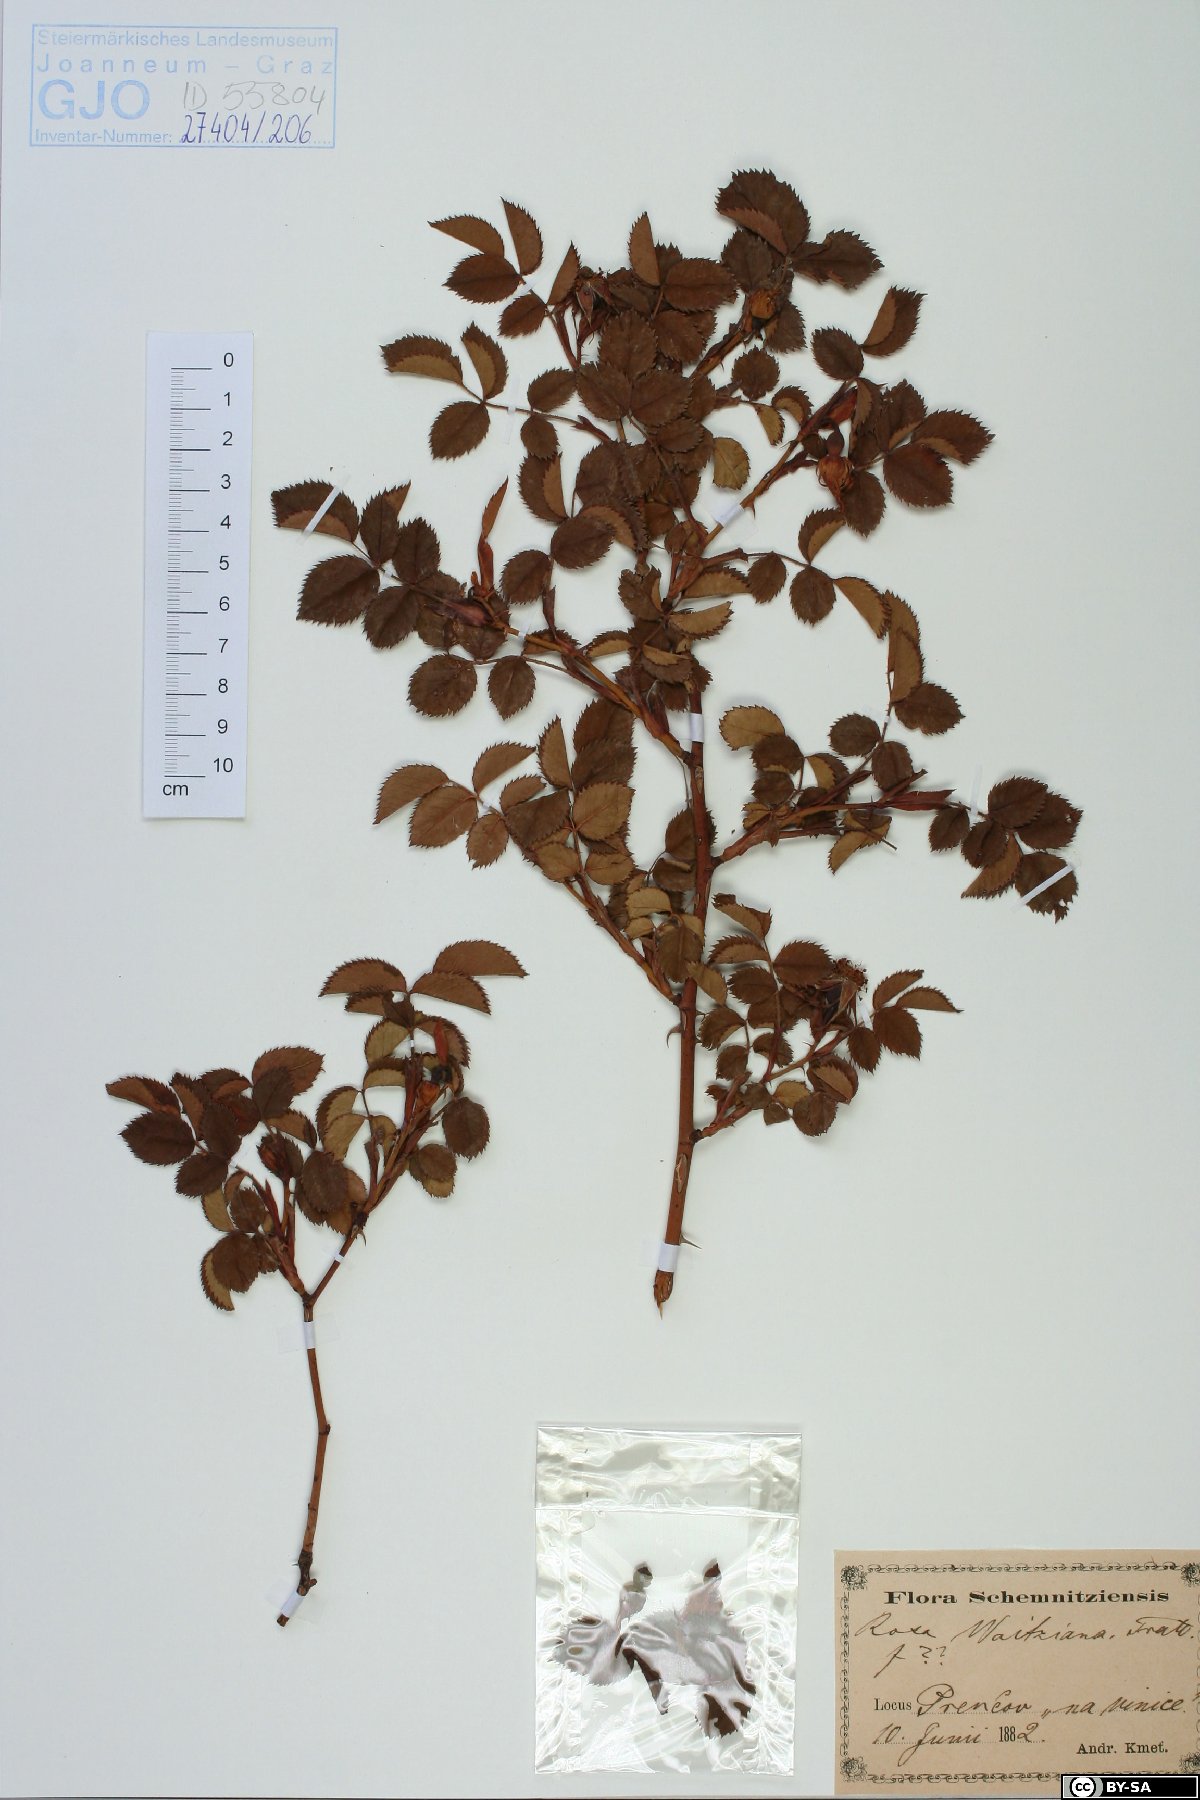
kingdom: Plantae
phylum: Tracheophyta
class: Magnoliopsida
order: Rosales
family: Rosaceae
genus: Rosa
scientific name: Rosa kosinsciana
